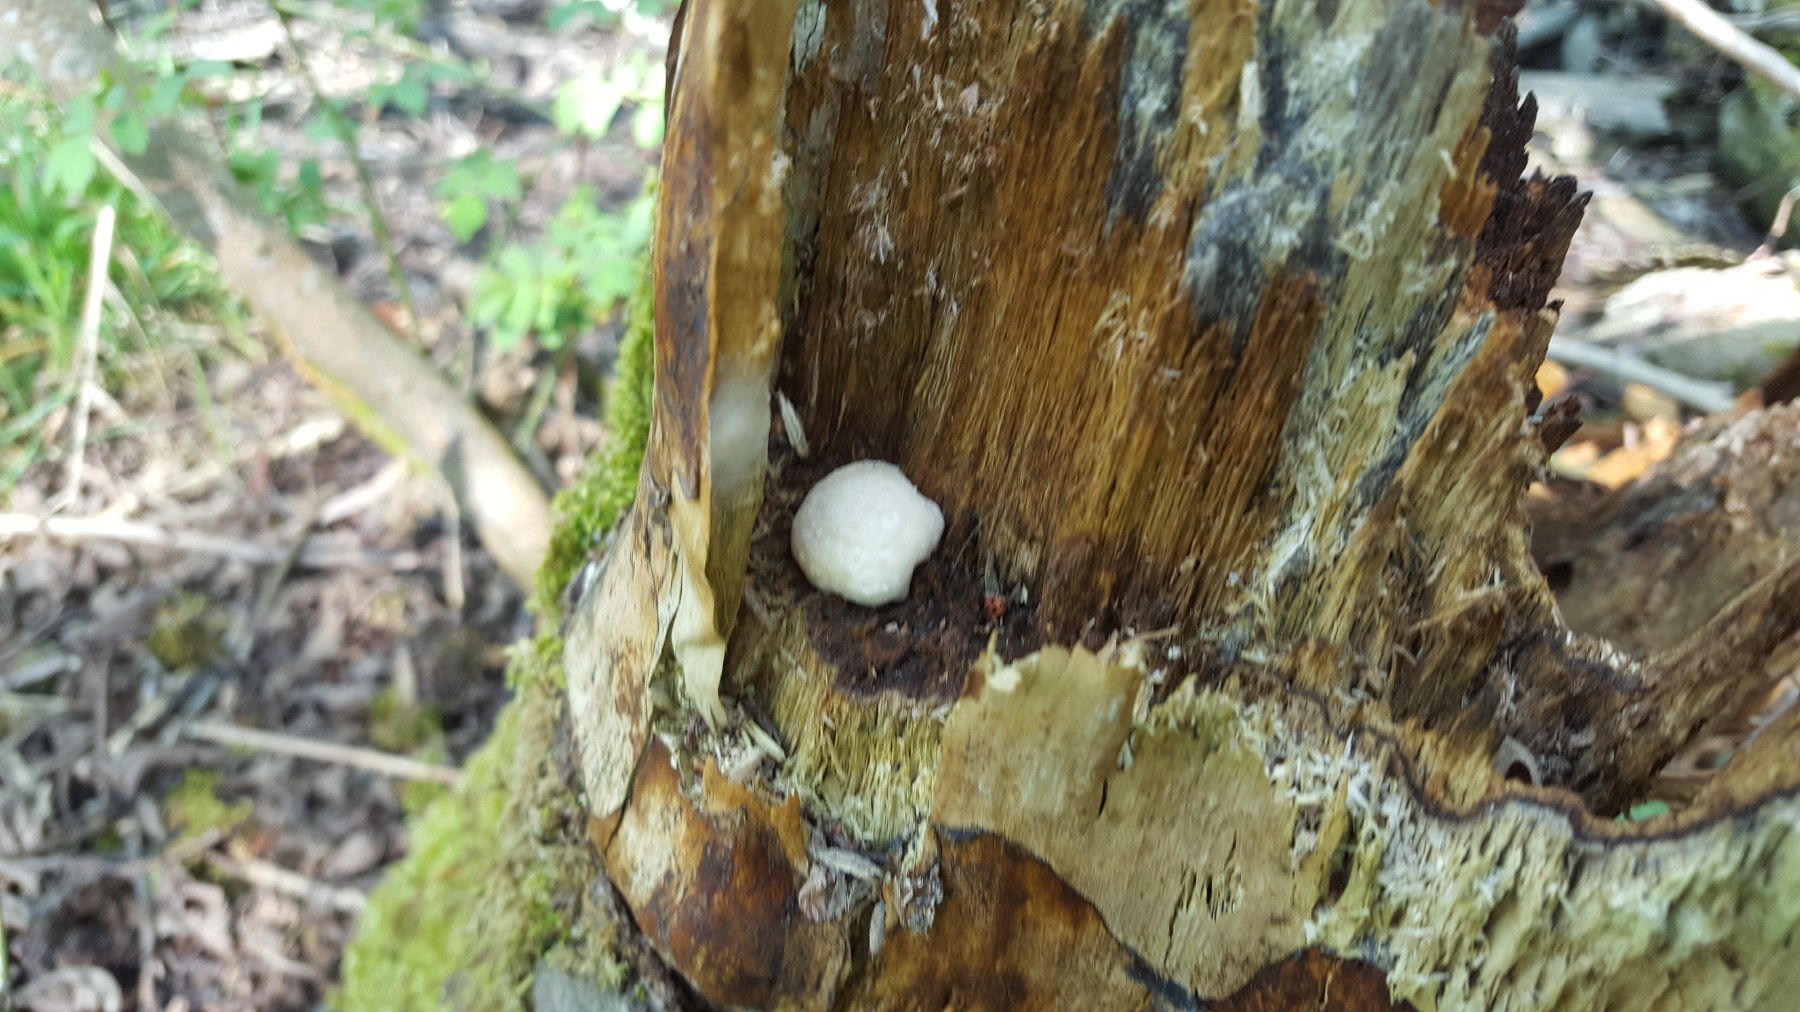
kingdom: Protozoa
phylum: Mycetozoa
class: Myxomycetes
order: Cribrariales
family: Tubiferaceae
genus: Reticularia
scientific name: Reticularia lycoperdon
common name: skinnende støvpude
